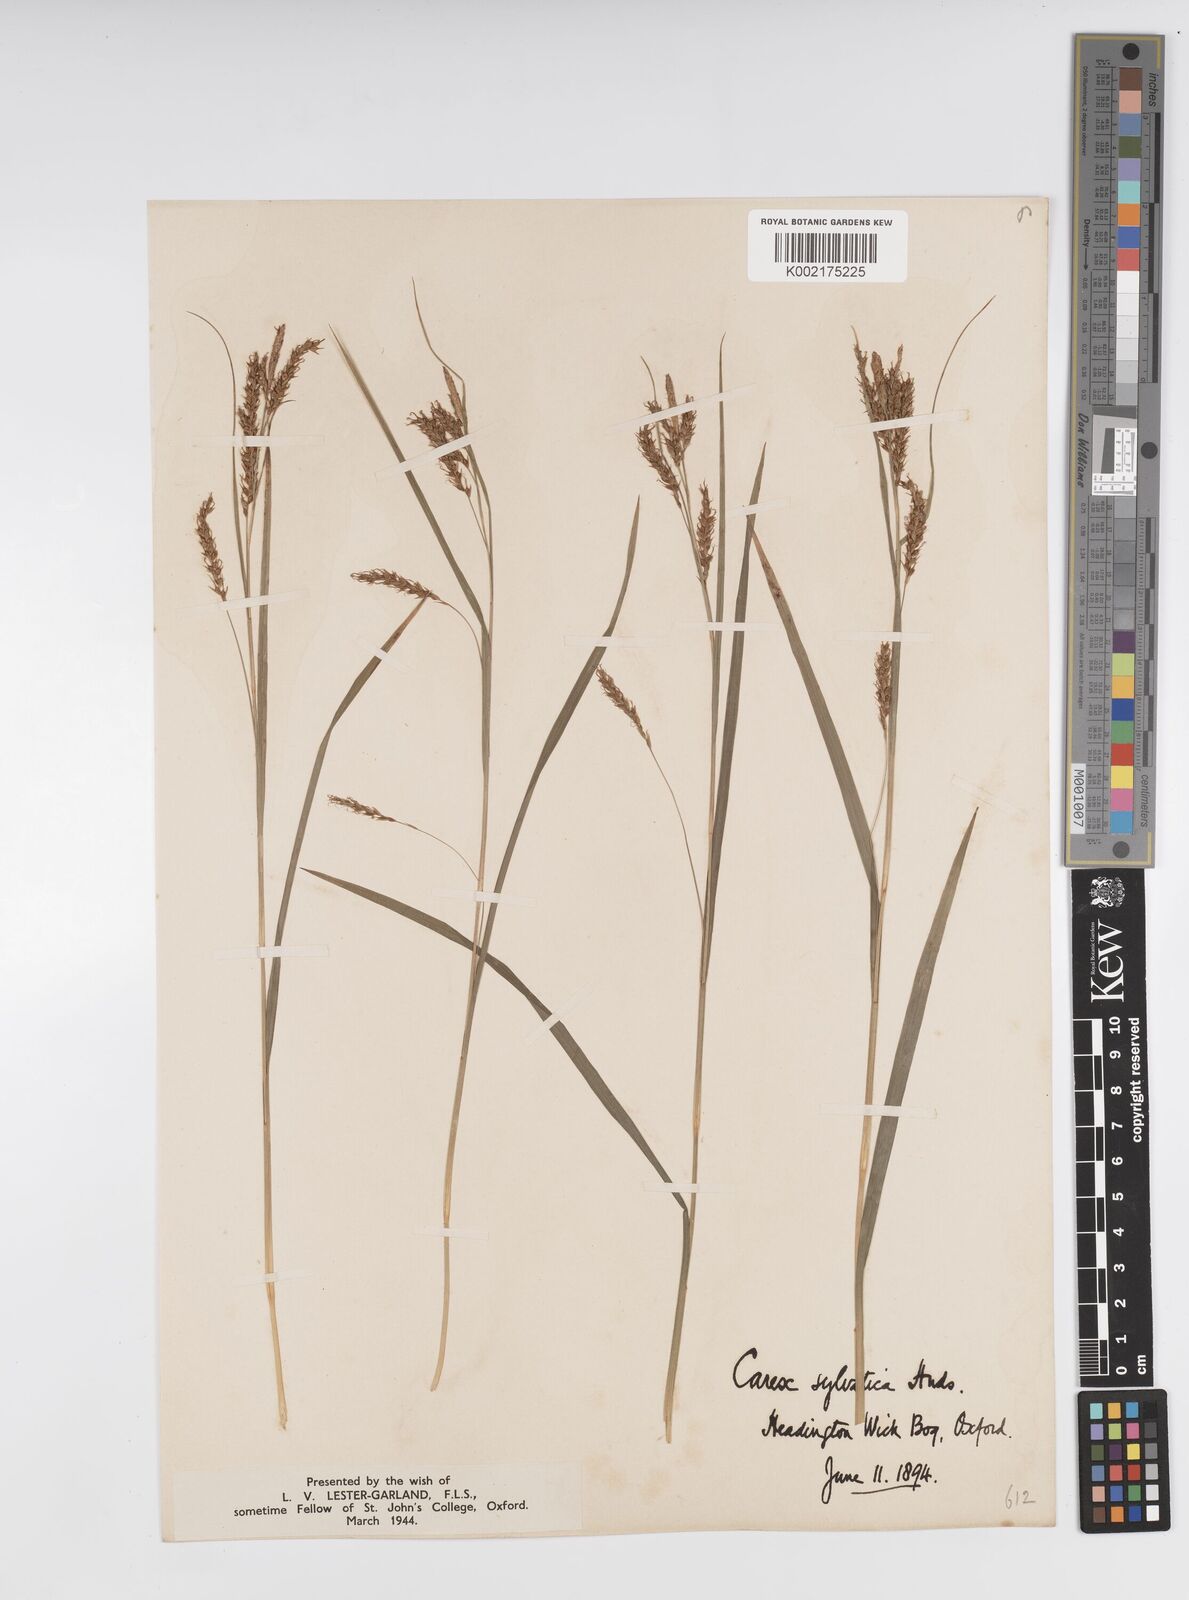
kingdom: Plantae
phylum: Tracheophyta
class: Liliopsida
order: Poales
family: Cyperaceae
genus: Carex
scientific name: Carex sylvatica
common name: Wood-sedge
